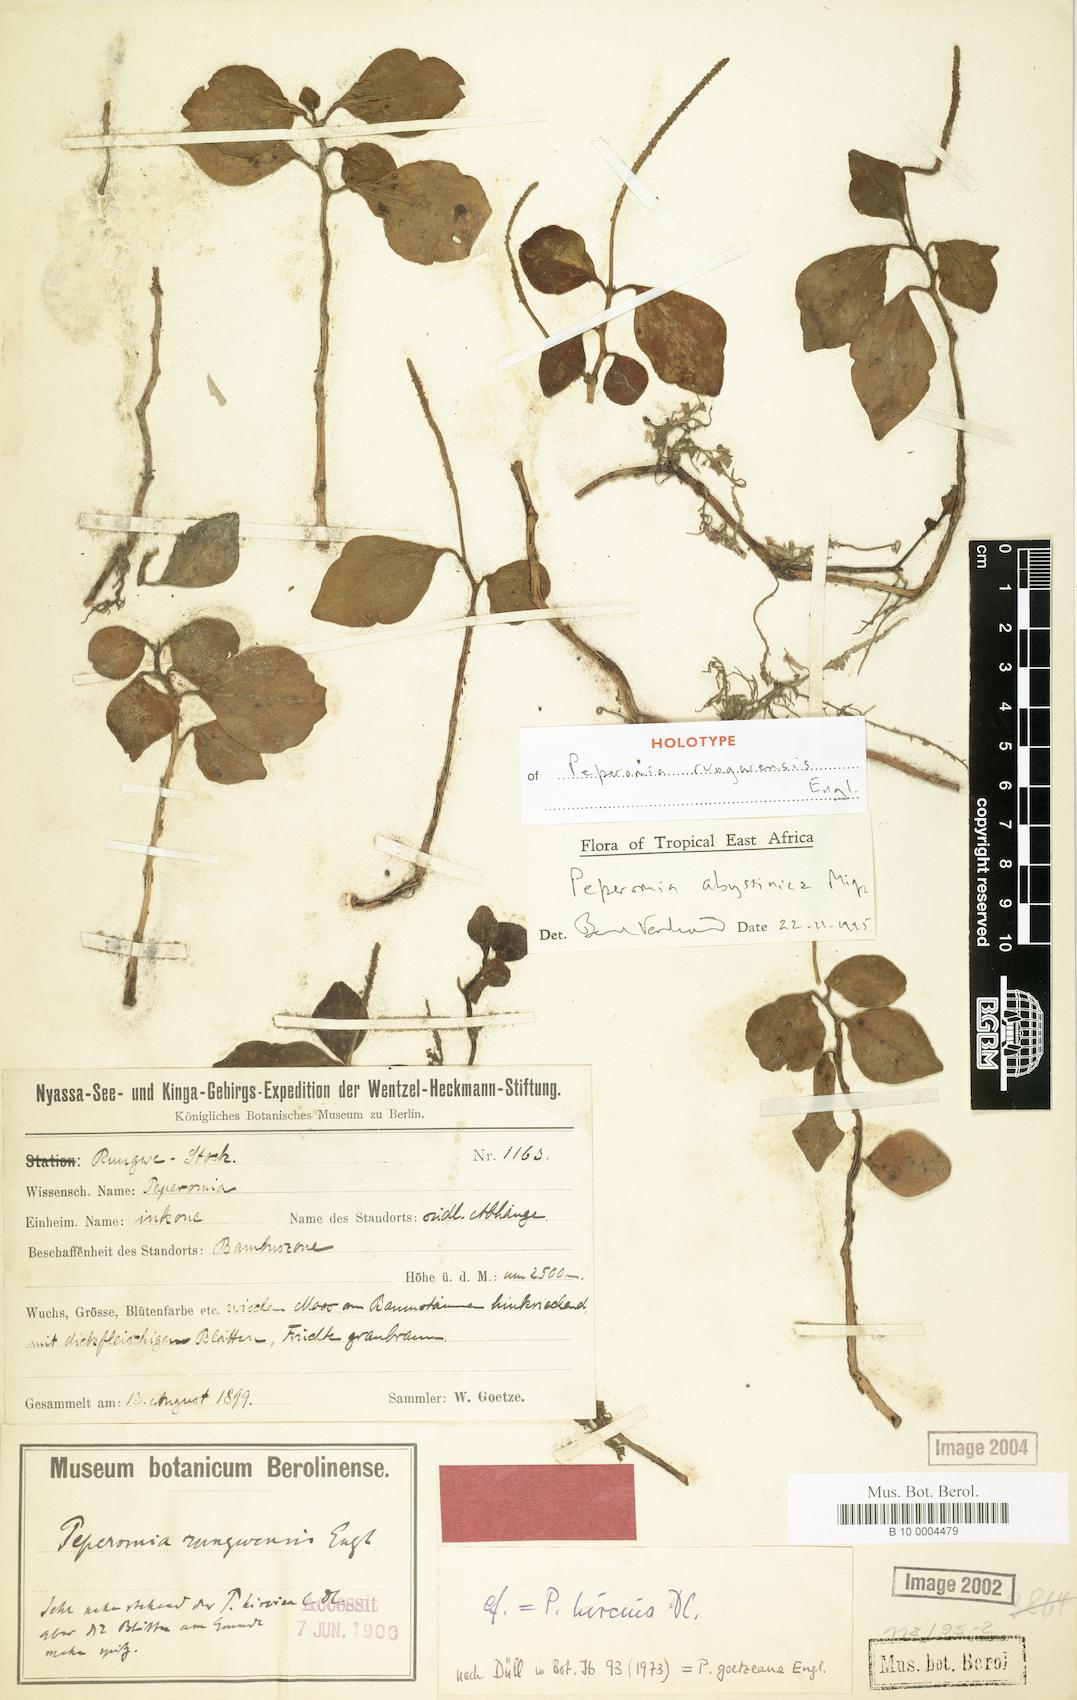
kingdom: Plantae
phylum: Tracheophyta
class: Magnoliopsida
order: Piperales
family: Piperaceae
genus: Peperomia
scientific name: Peperomia abyssinica
